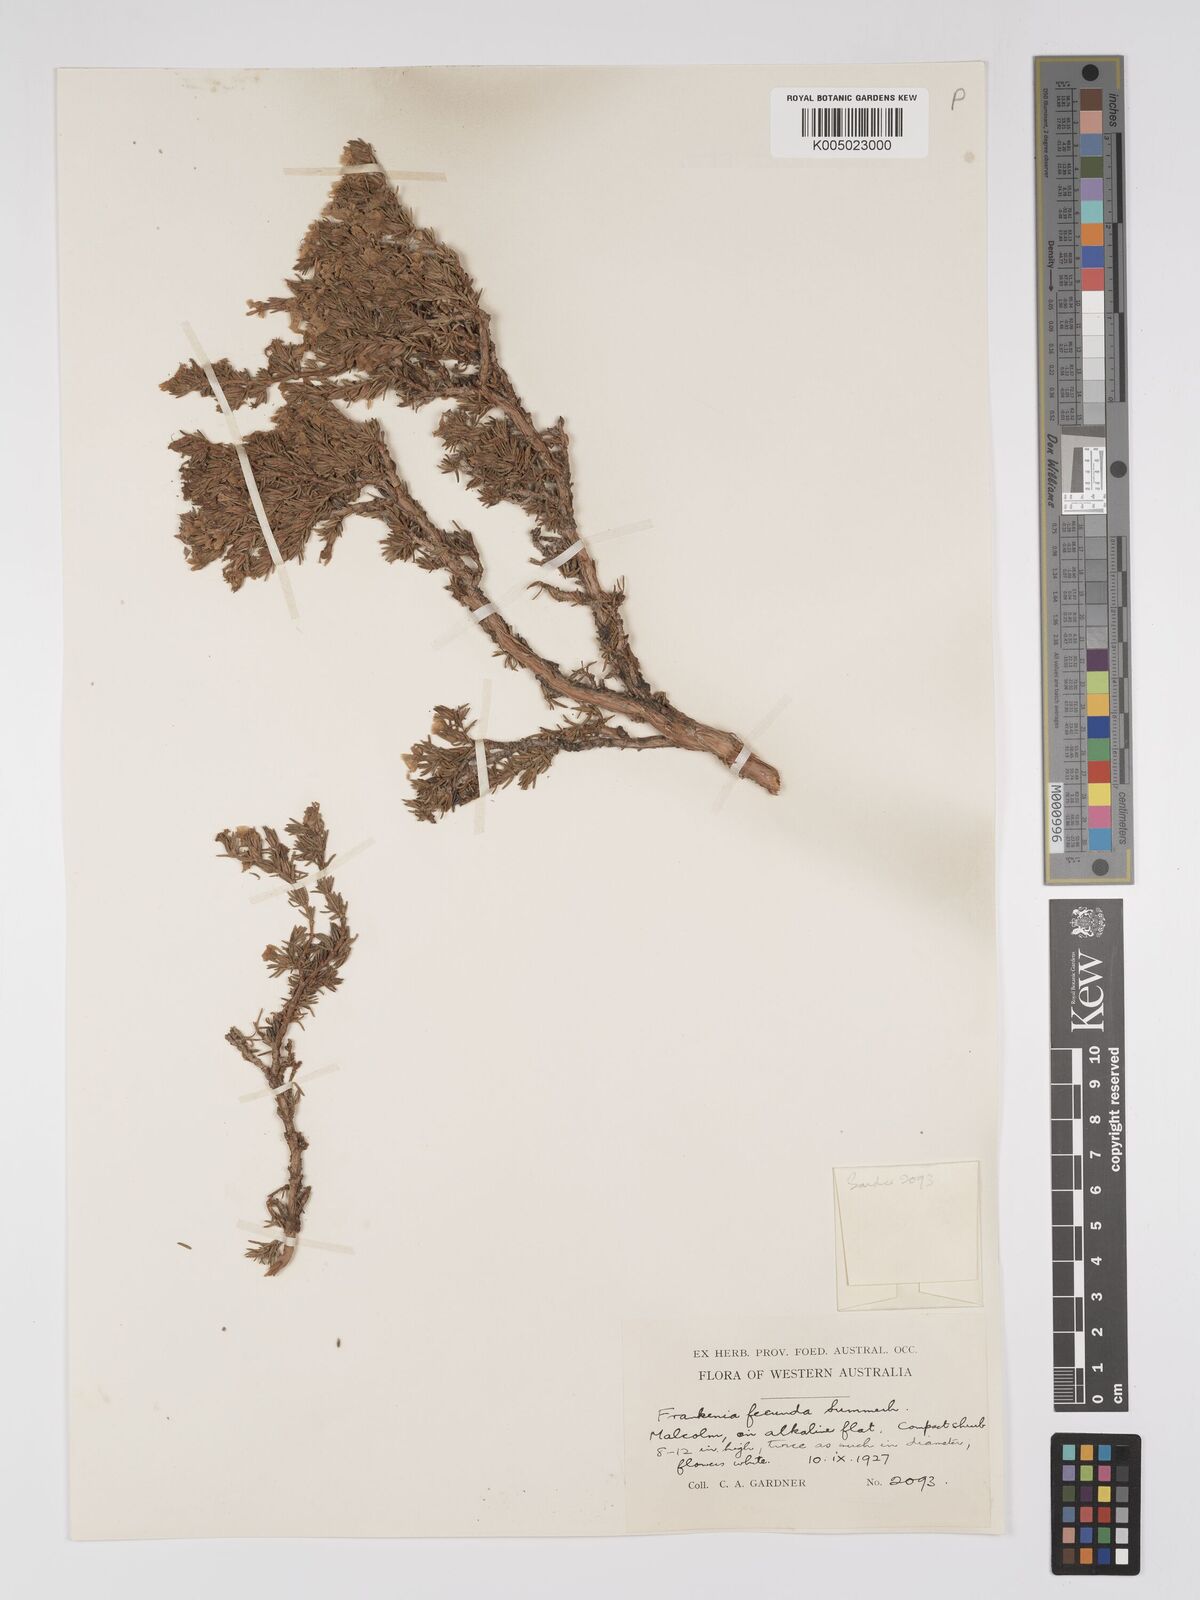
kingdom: Plantae
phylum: Tracheophyta
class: Magnoliopsida
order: Caryophyllales
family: Frankeniaceae
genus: Frankenia
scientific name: Frankenia fecunda
